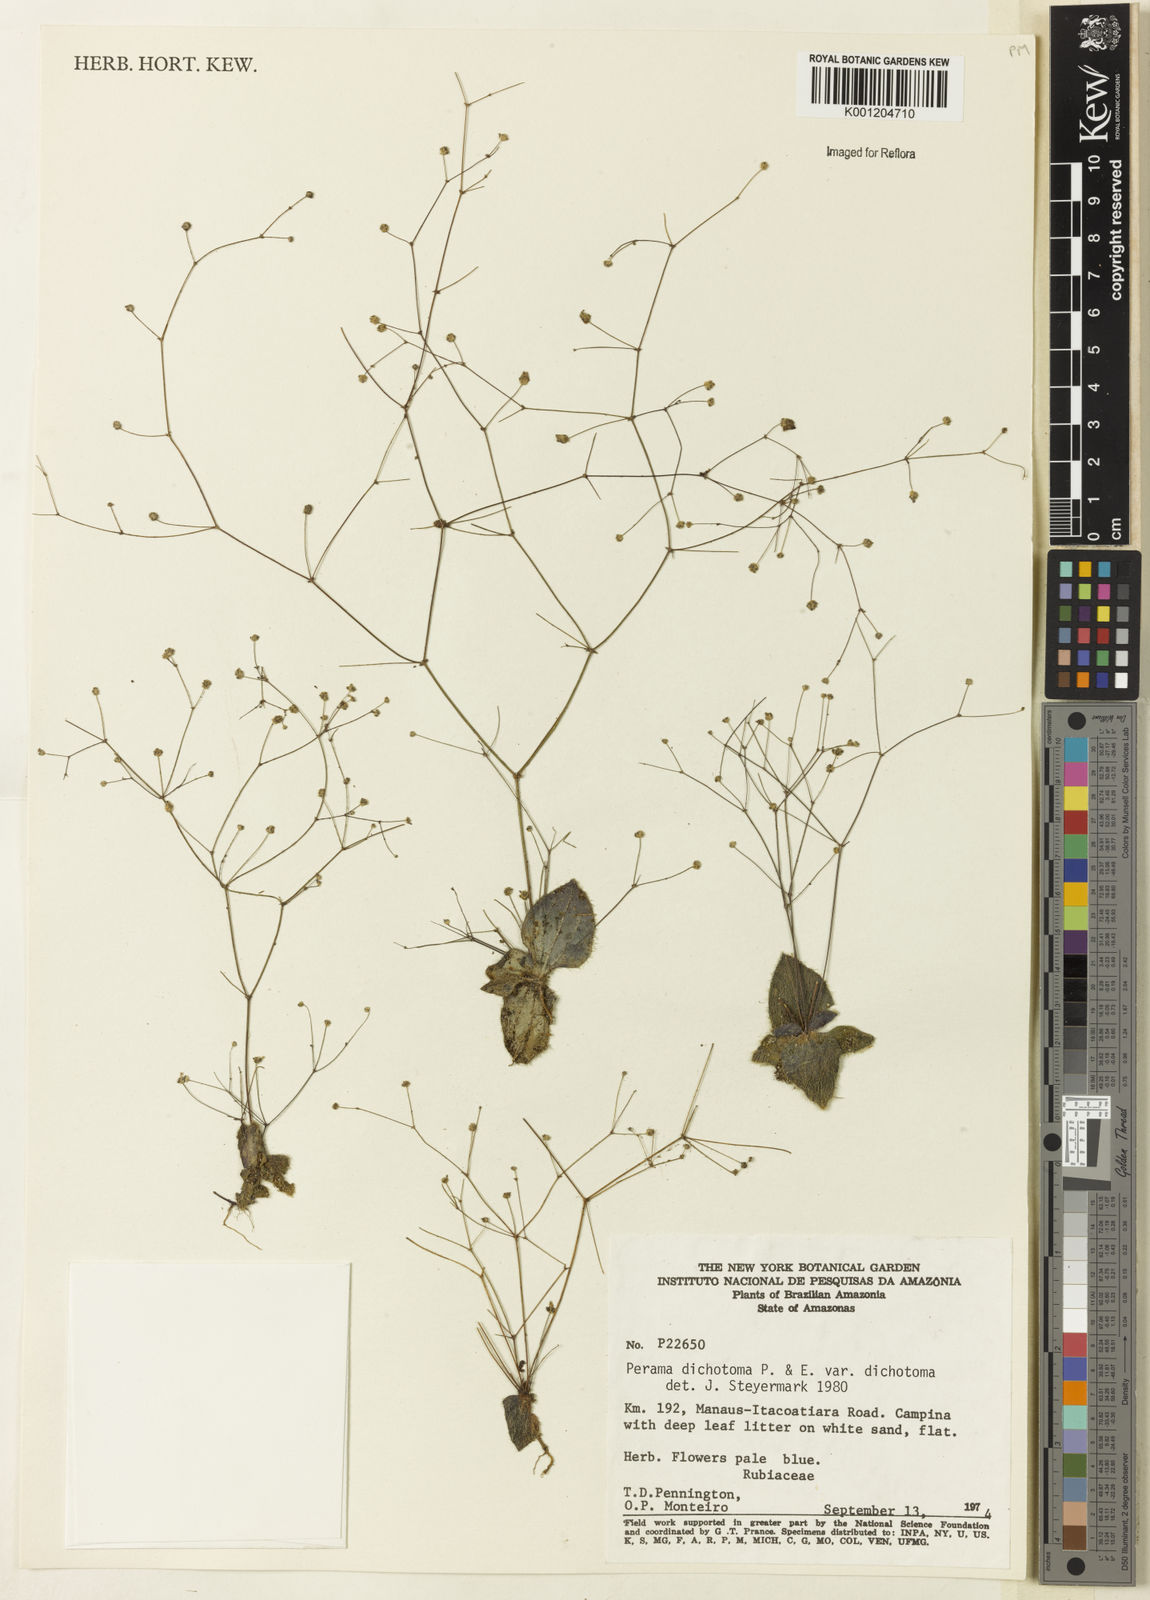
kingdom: Plantae
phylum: Tracheophyta
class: Magnoliopsida
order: Gentianales
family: Rubiaceae
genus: Perama
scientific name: Perama dichotoma
